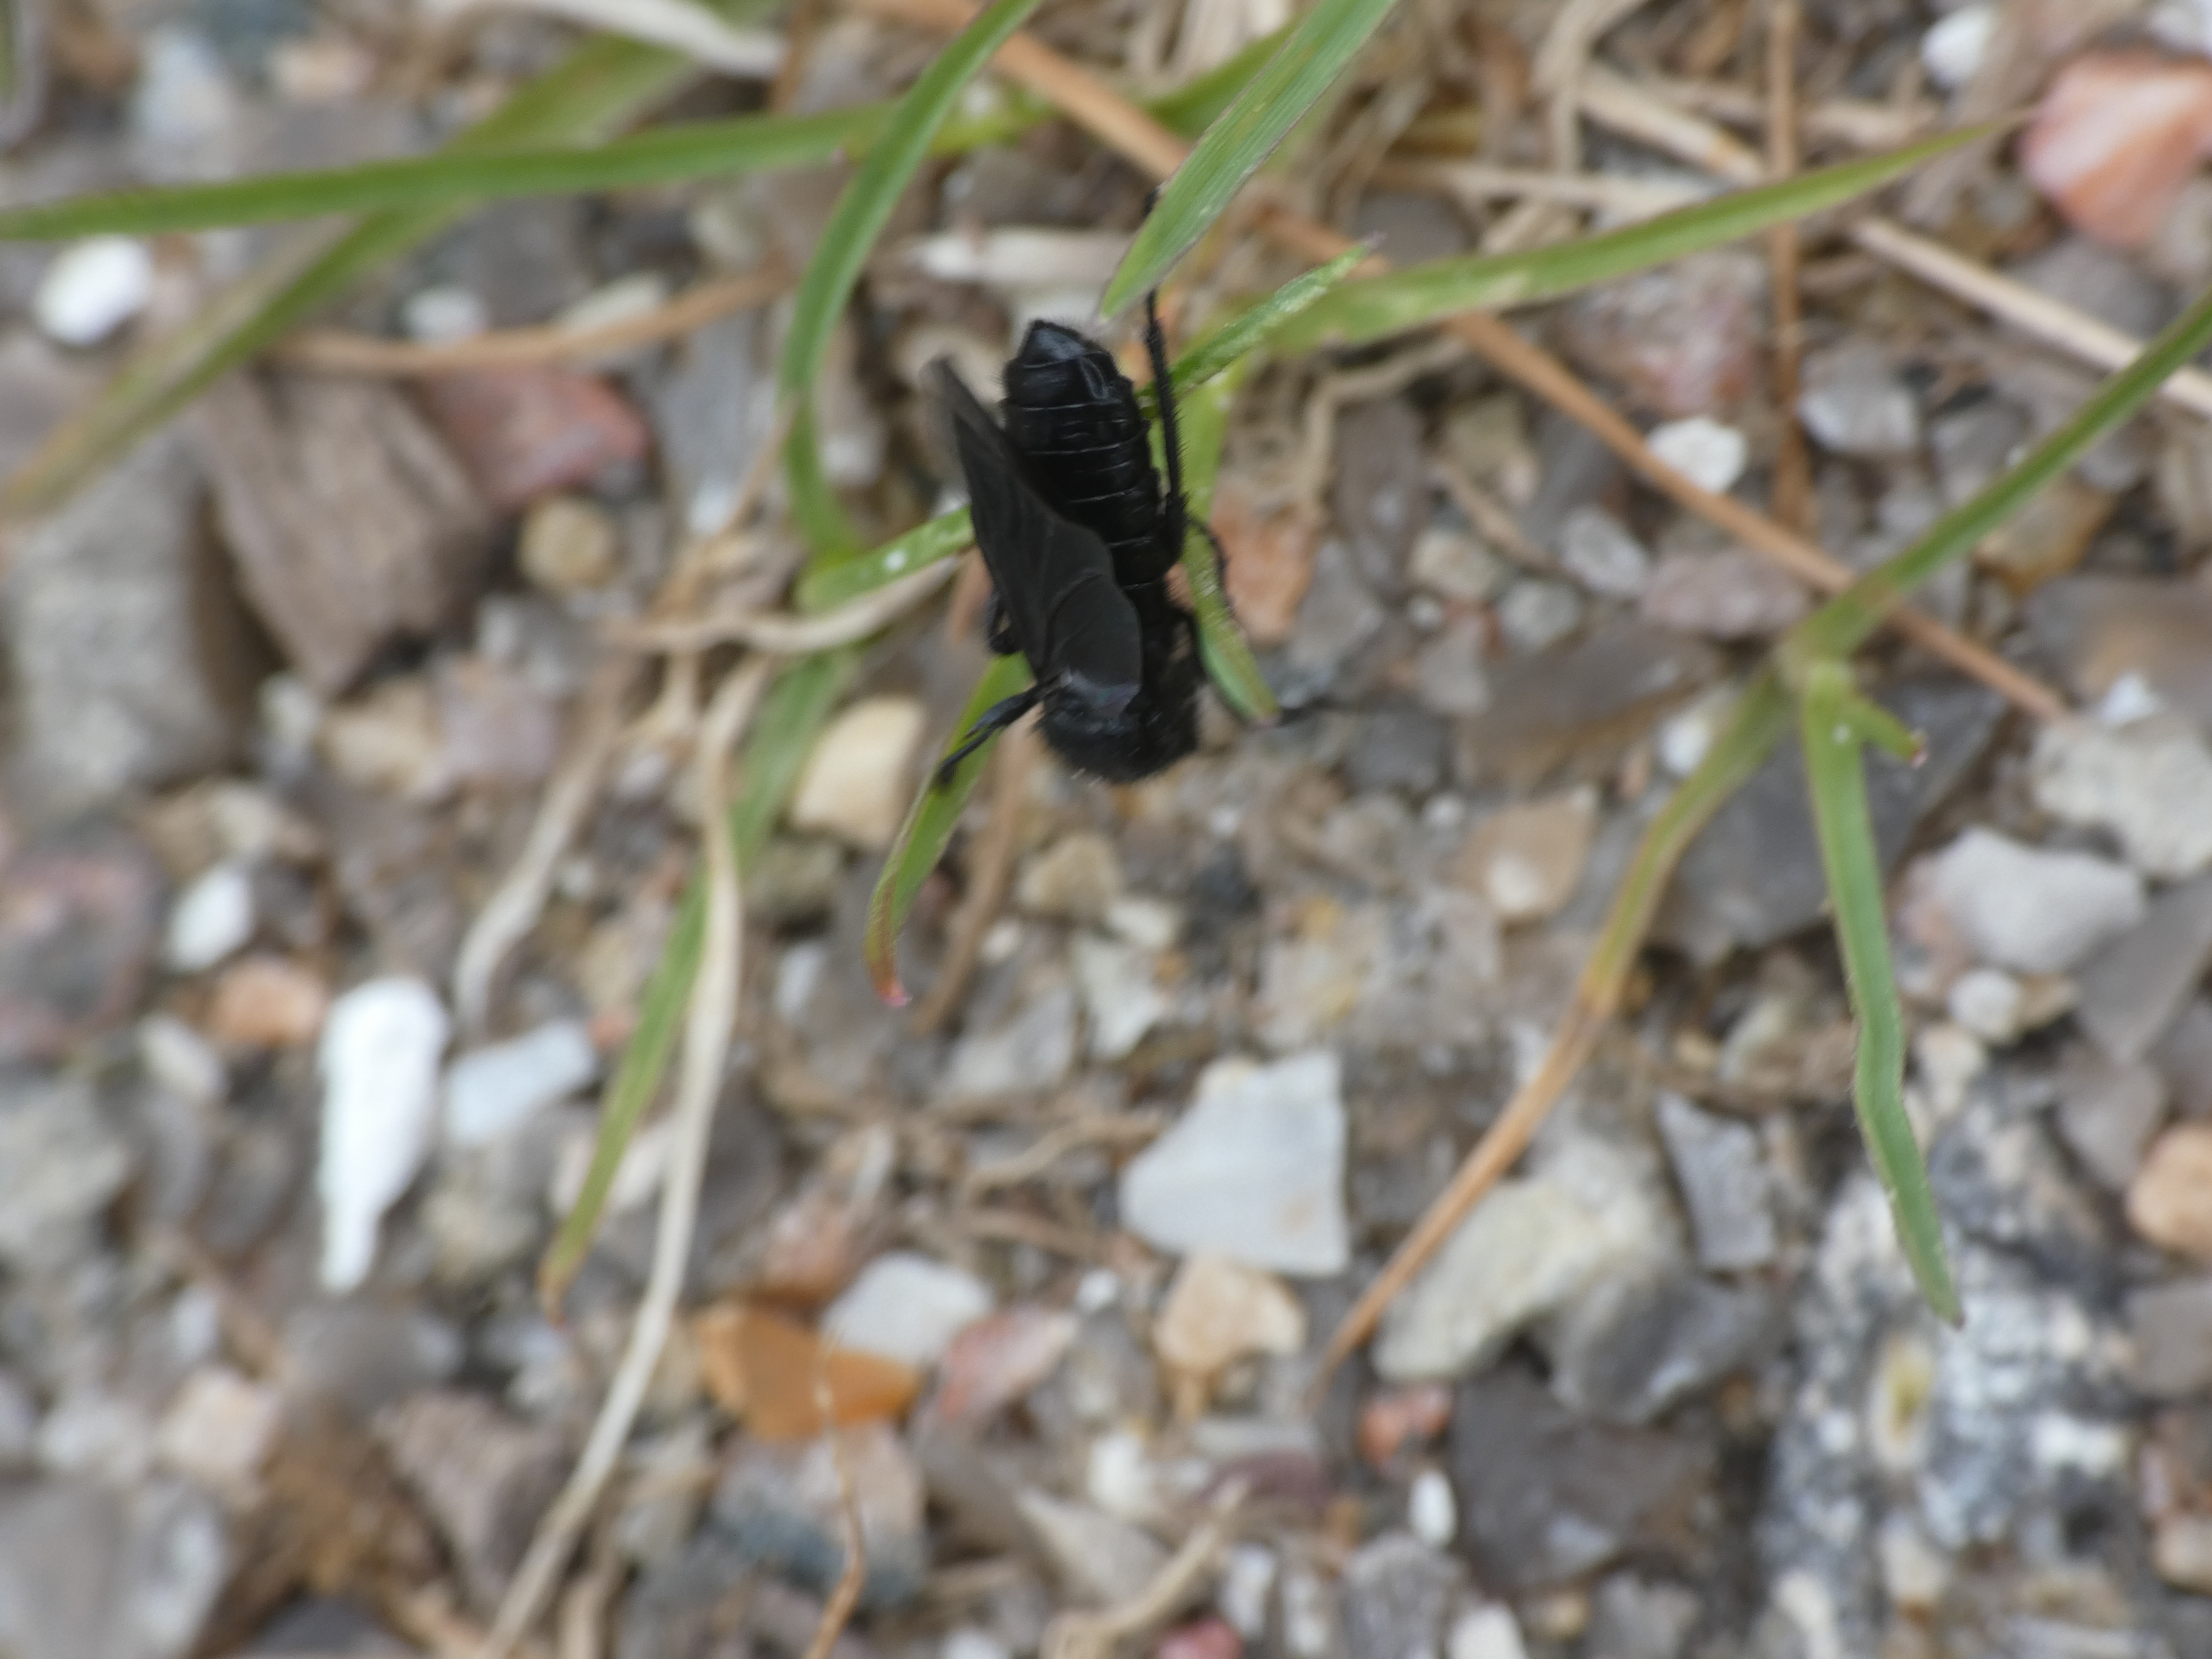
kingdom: Animalia
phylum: Arthropoda
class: Insecta
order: Diptera
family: Bibionidae
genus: Bibio
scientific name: Bibio marci
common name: Skovhårmyg
